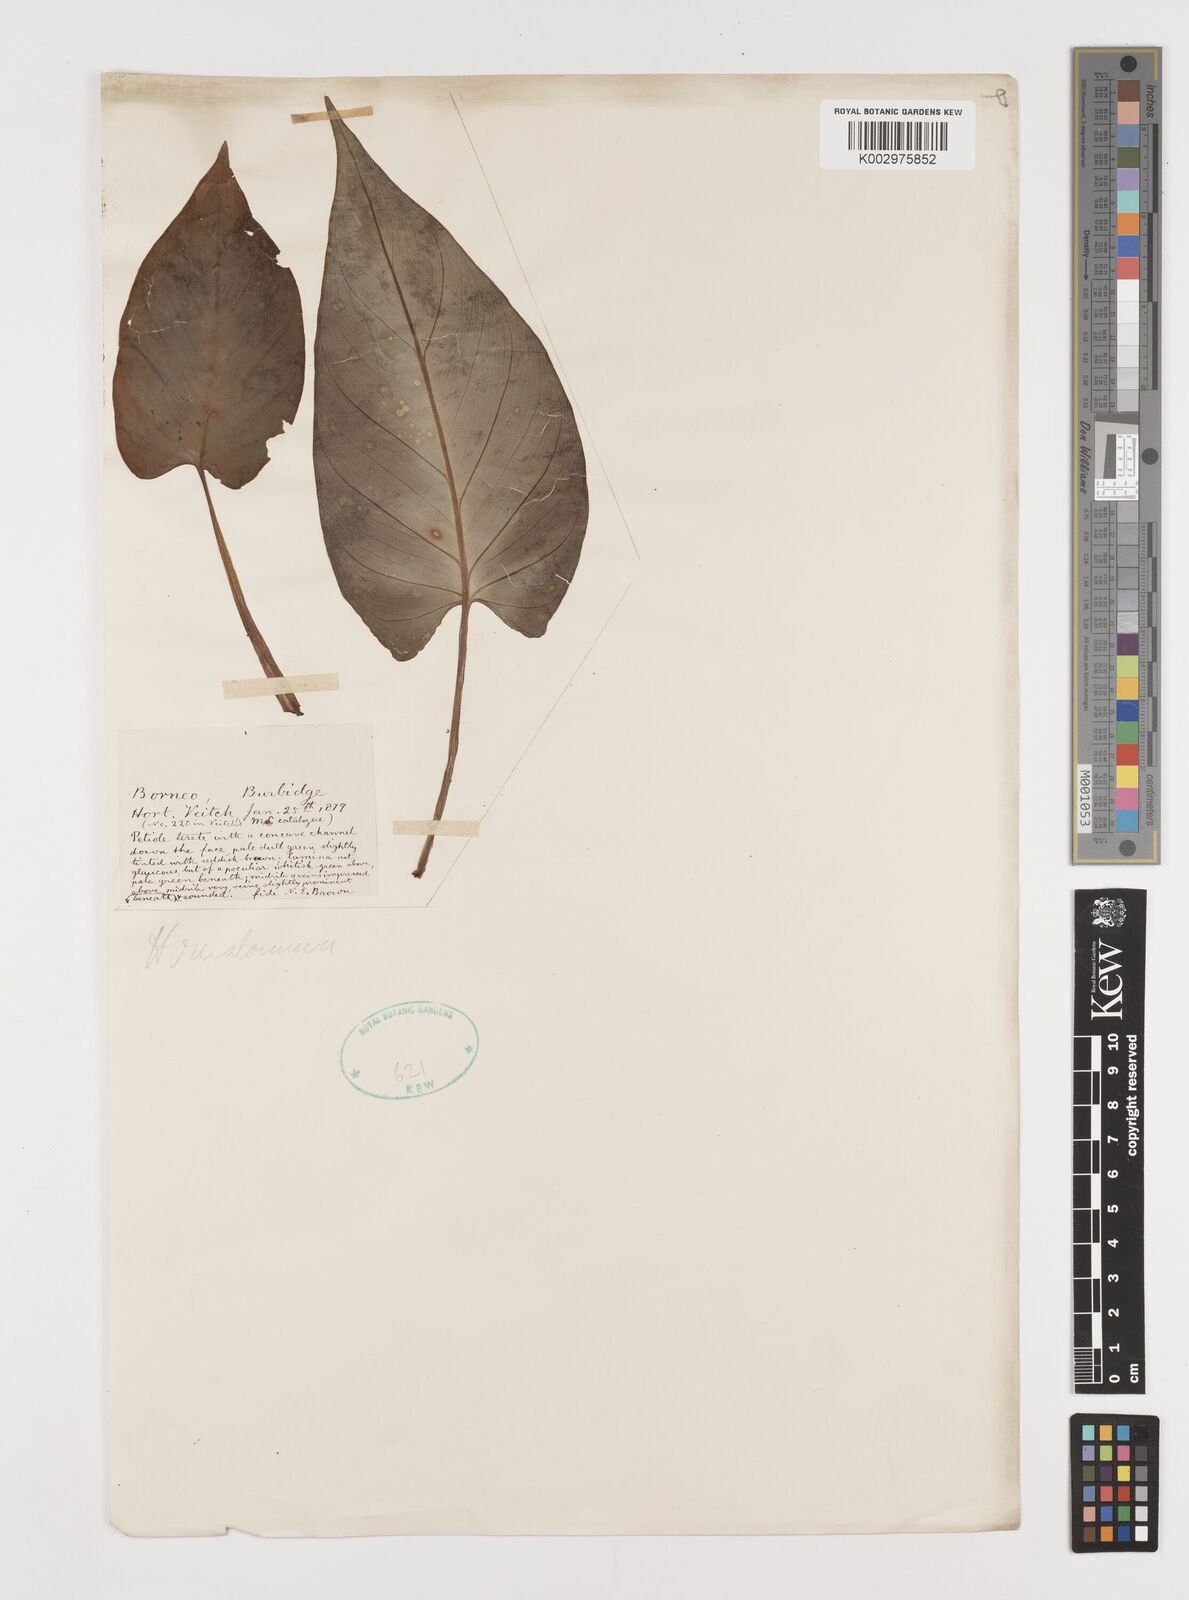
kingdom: Plantae
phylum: Tracheophyta
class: Liliopsida
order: Alismatales
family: Araceae
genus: Homalomena
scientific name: Homalomena
